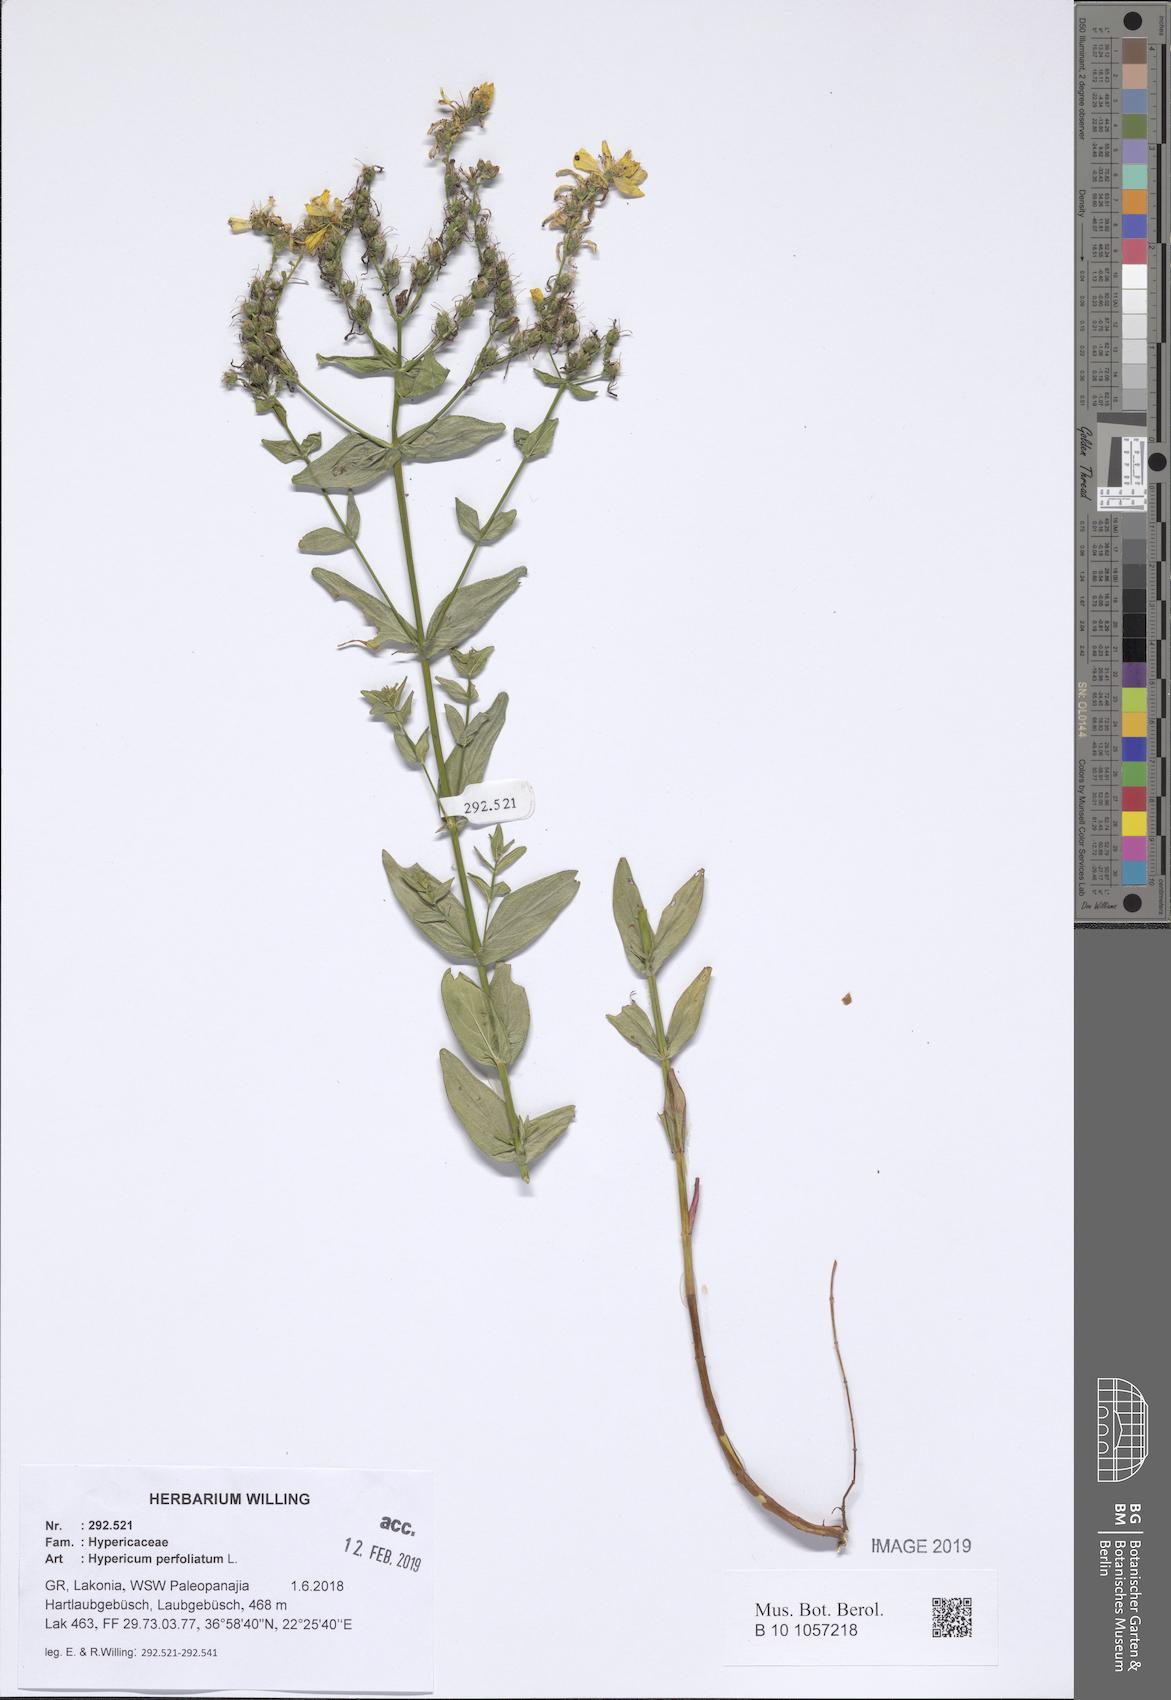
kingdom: Plantae
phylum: Tracheophyta
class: Magnoliopsida
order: Malpighiales
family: Hypericaceae
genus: Hypericum
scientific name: Hypericum perfoliatum
